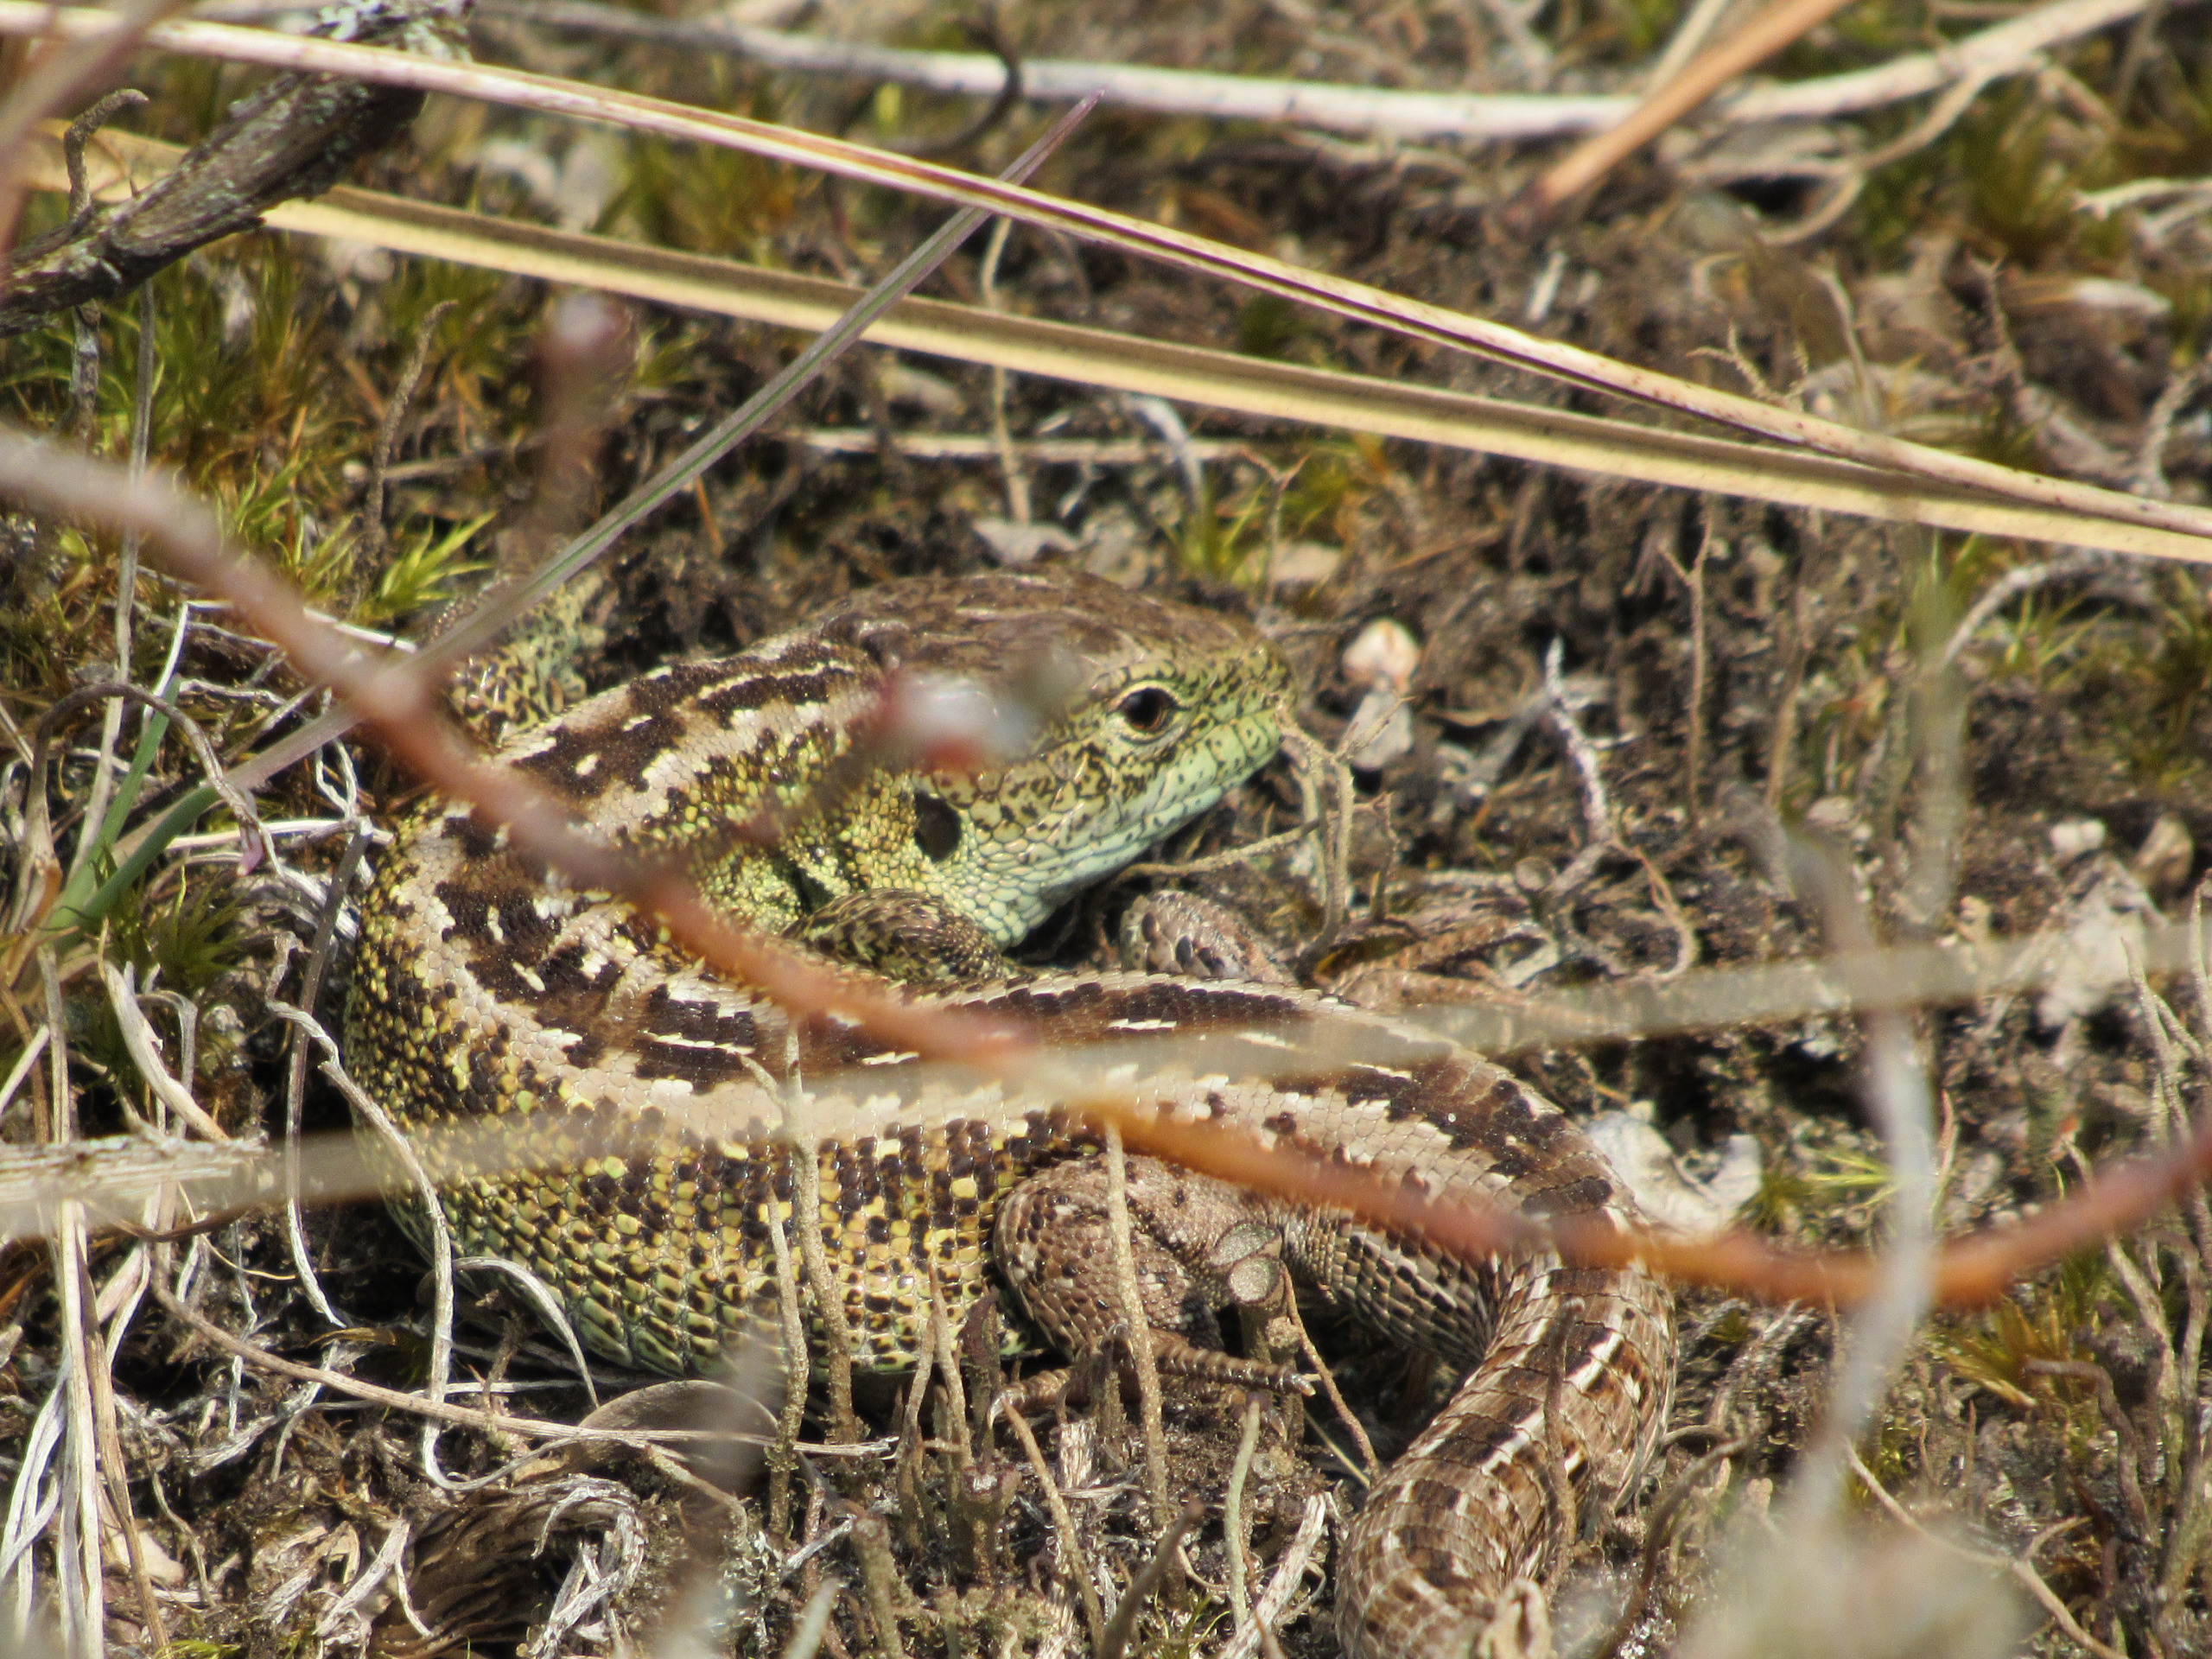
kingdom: Animalia
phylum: Chordata
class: Squamata
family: Lacertidae
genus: Lacerta
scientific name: Lacerta agilis
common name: Markfirben
